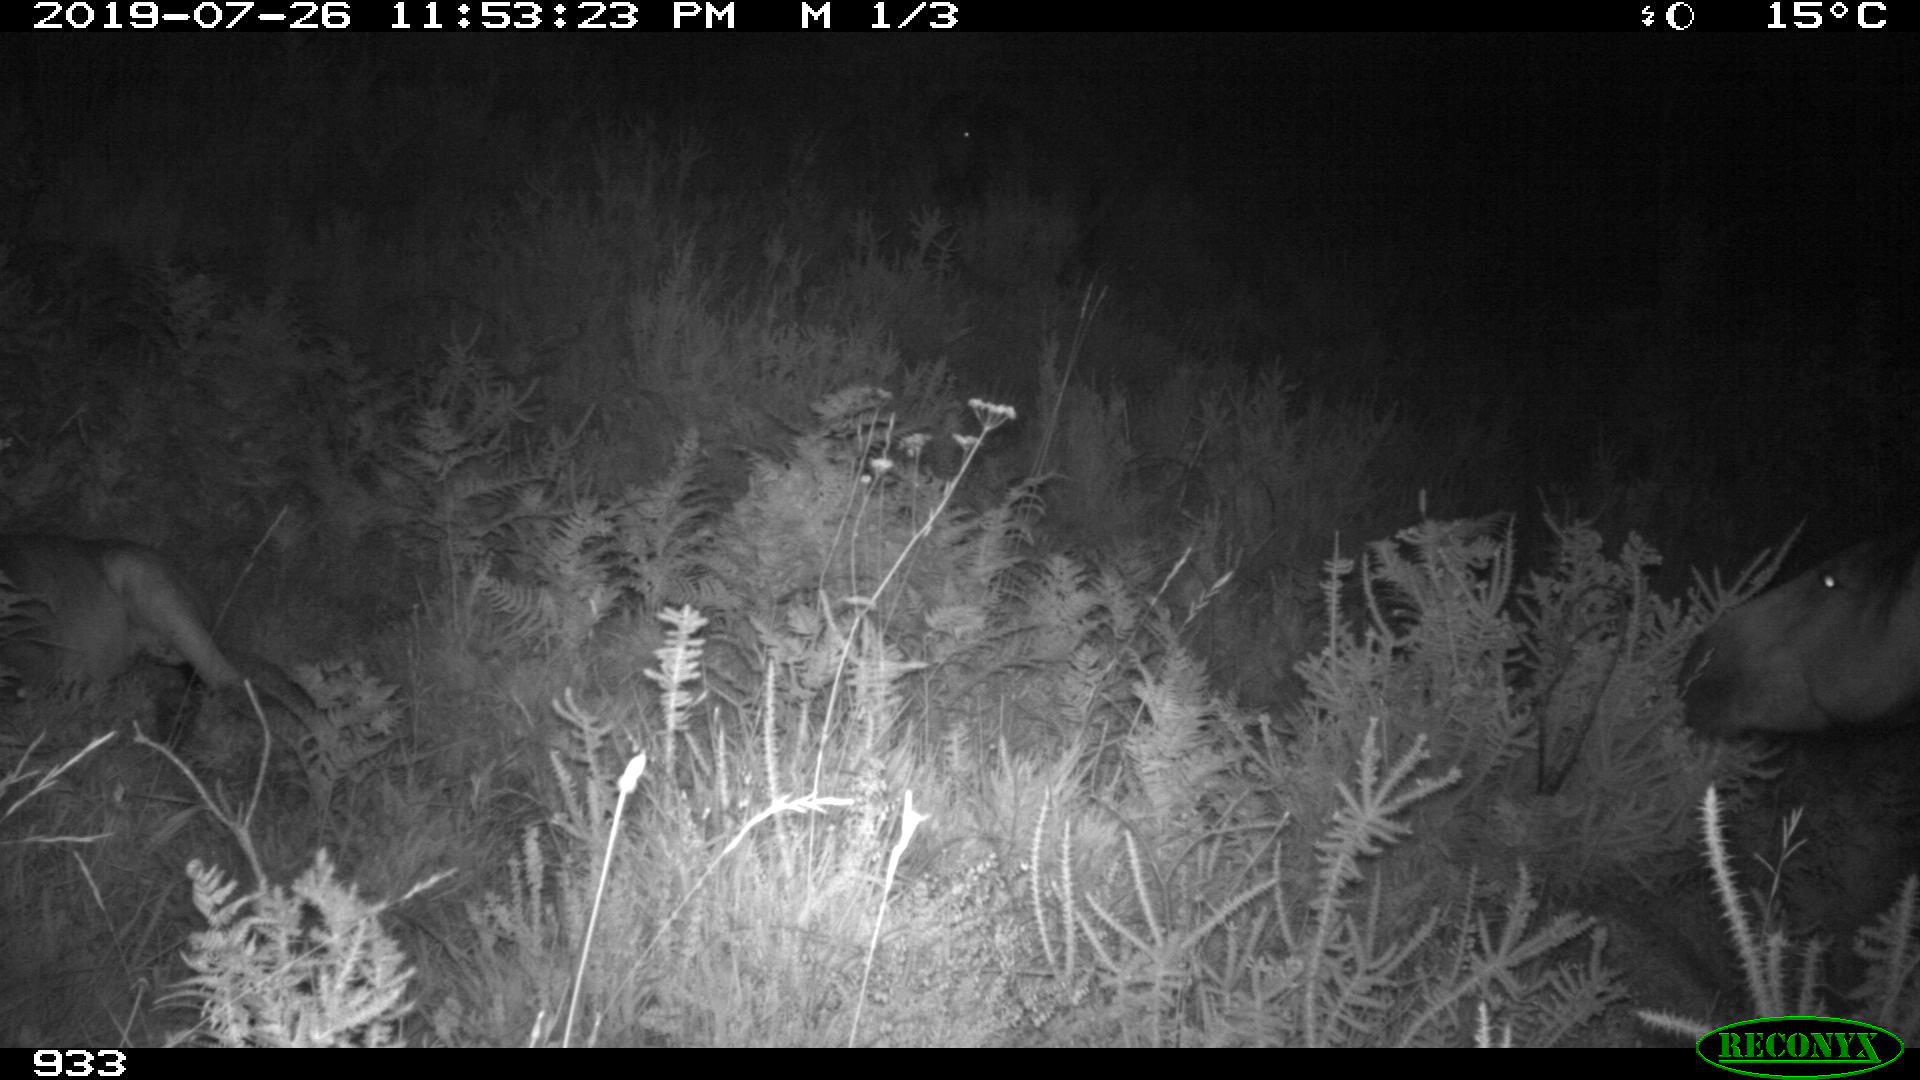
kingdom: Animalia
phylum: Chordata
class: Mammalia
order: Perissodactyla
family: Equidae
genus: Equus
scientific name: Equus caballus
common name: Horse
